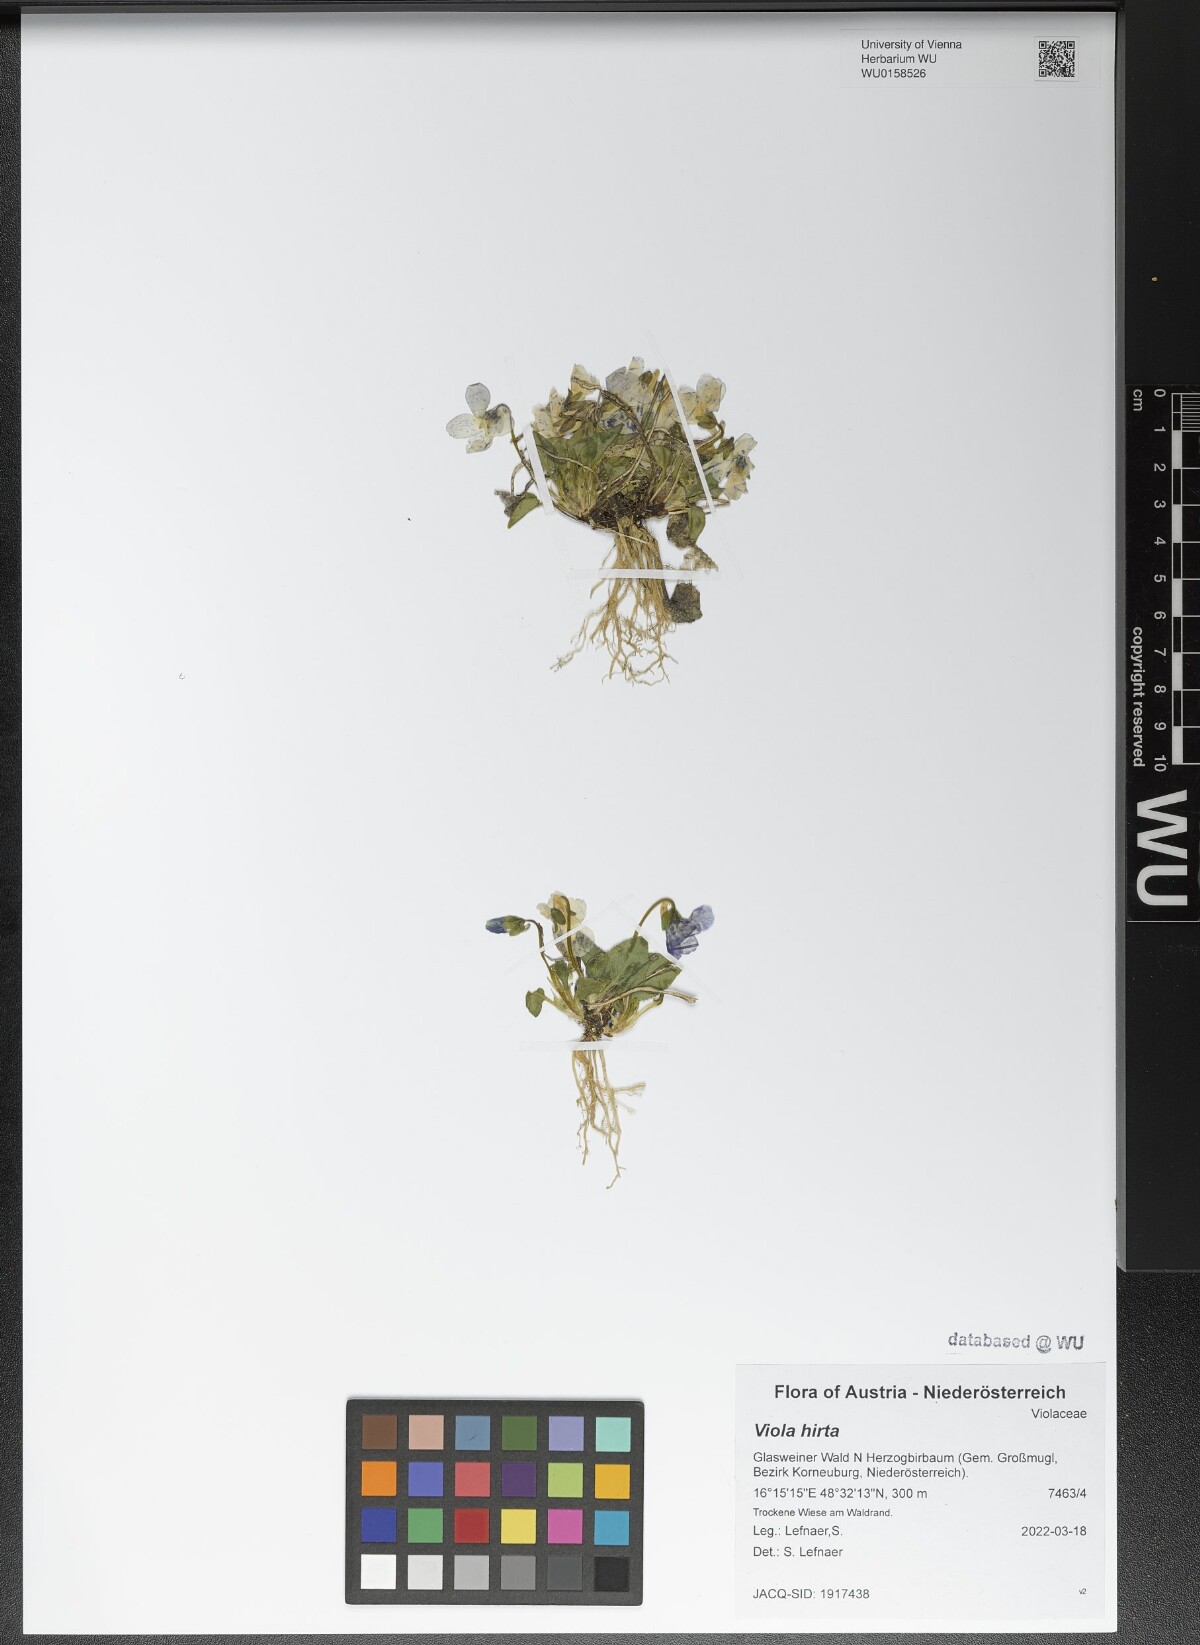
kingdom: Plantae
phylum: Tracheophyta
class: Magnoliopsida
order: Malpighiales
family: Violaceae
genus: Viola
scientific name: Viola hirta
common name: Hairy violet
